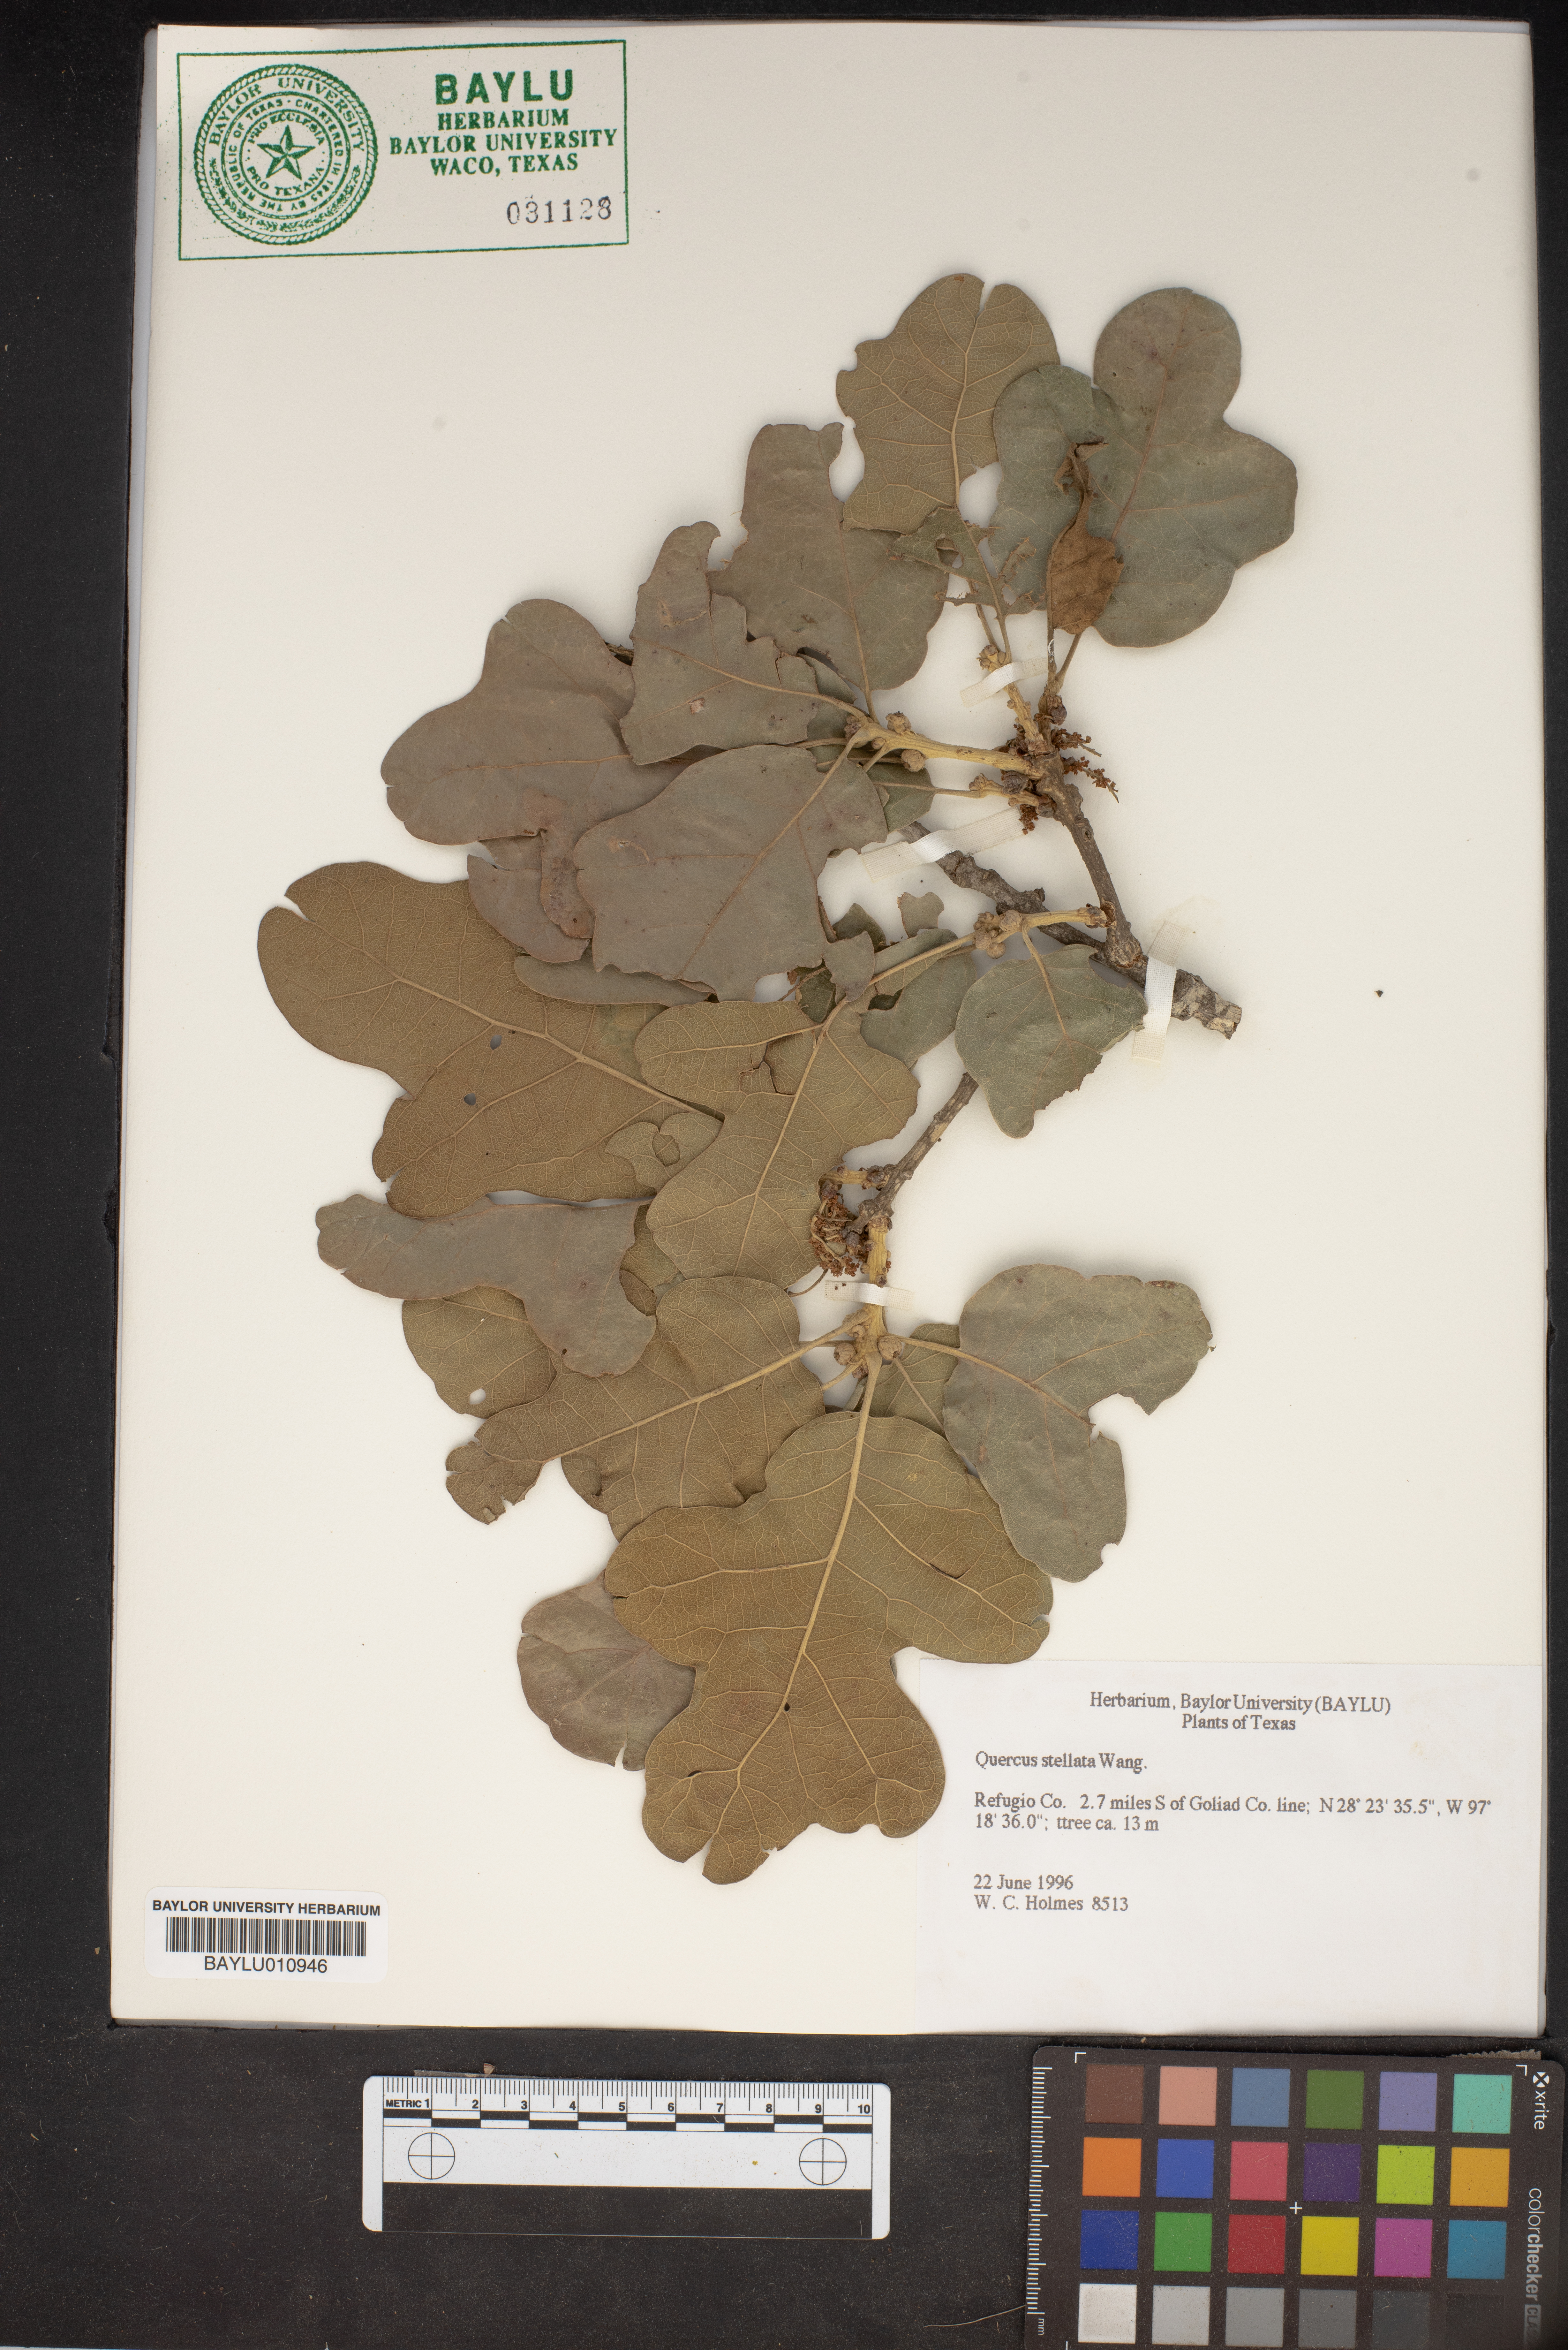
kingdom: Plantae
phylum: Tracheophyta
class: Magnoliopsida
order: Fagales
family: Fagaceae
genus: Quercus
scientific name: Quercus stellata
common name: Post oak
